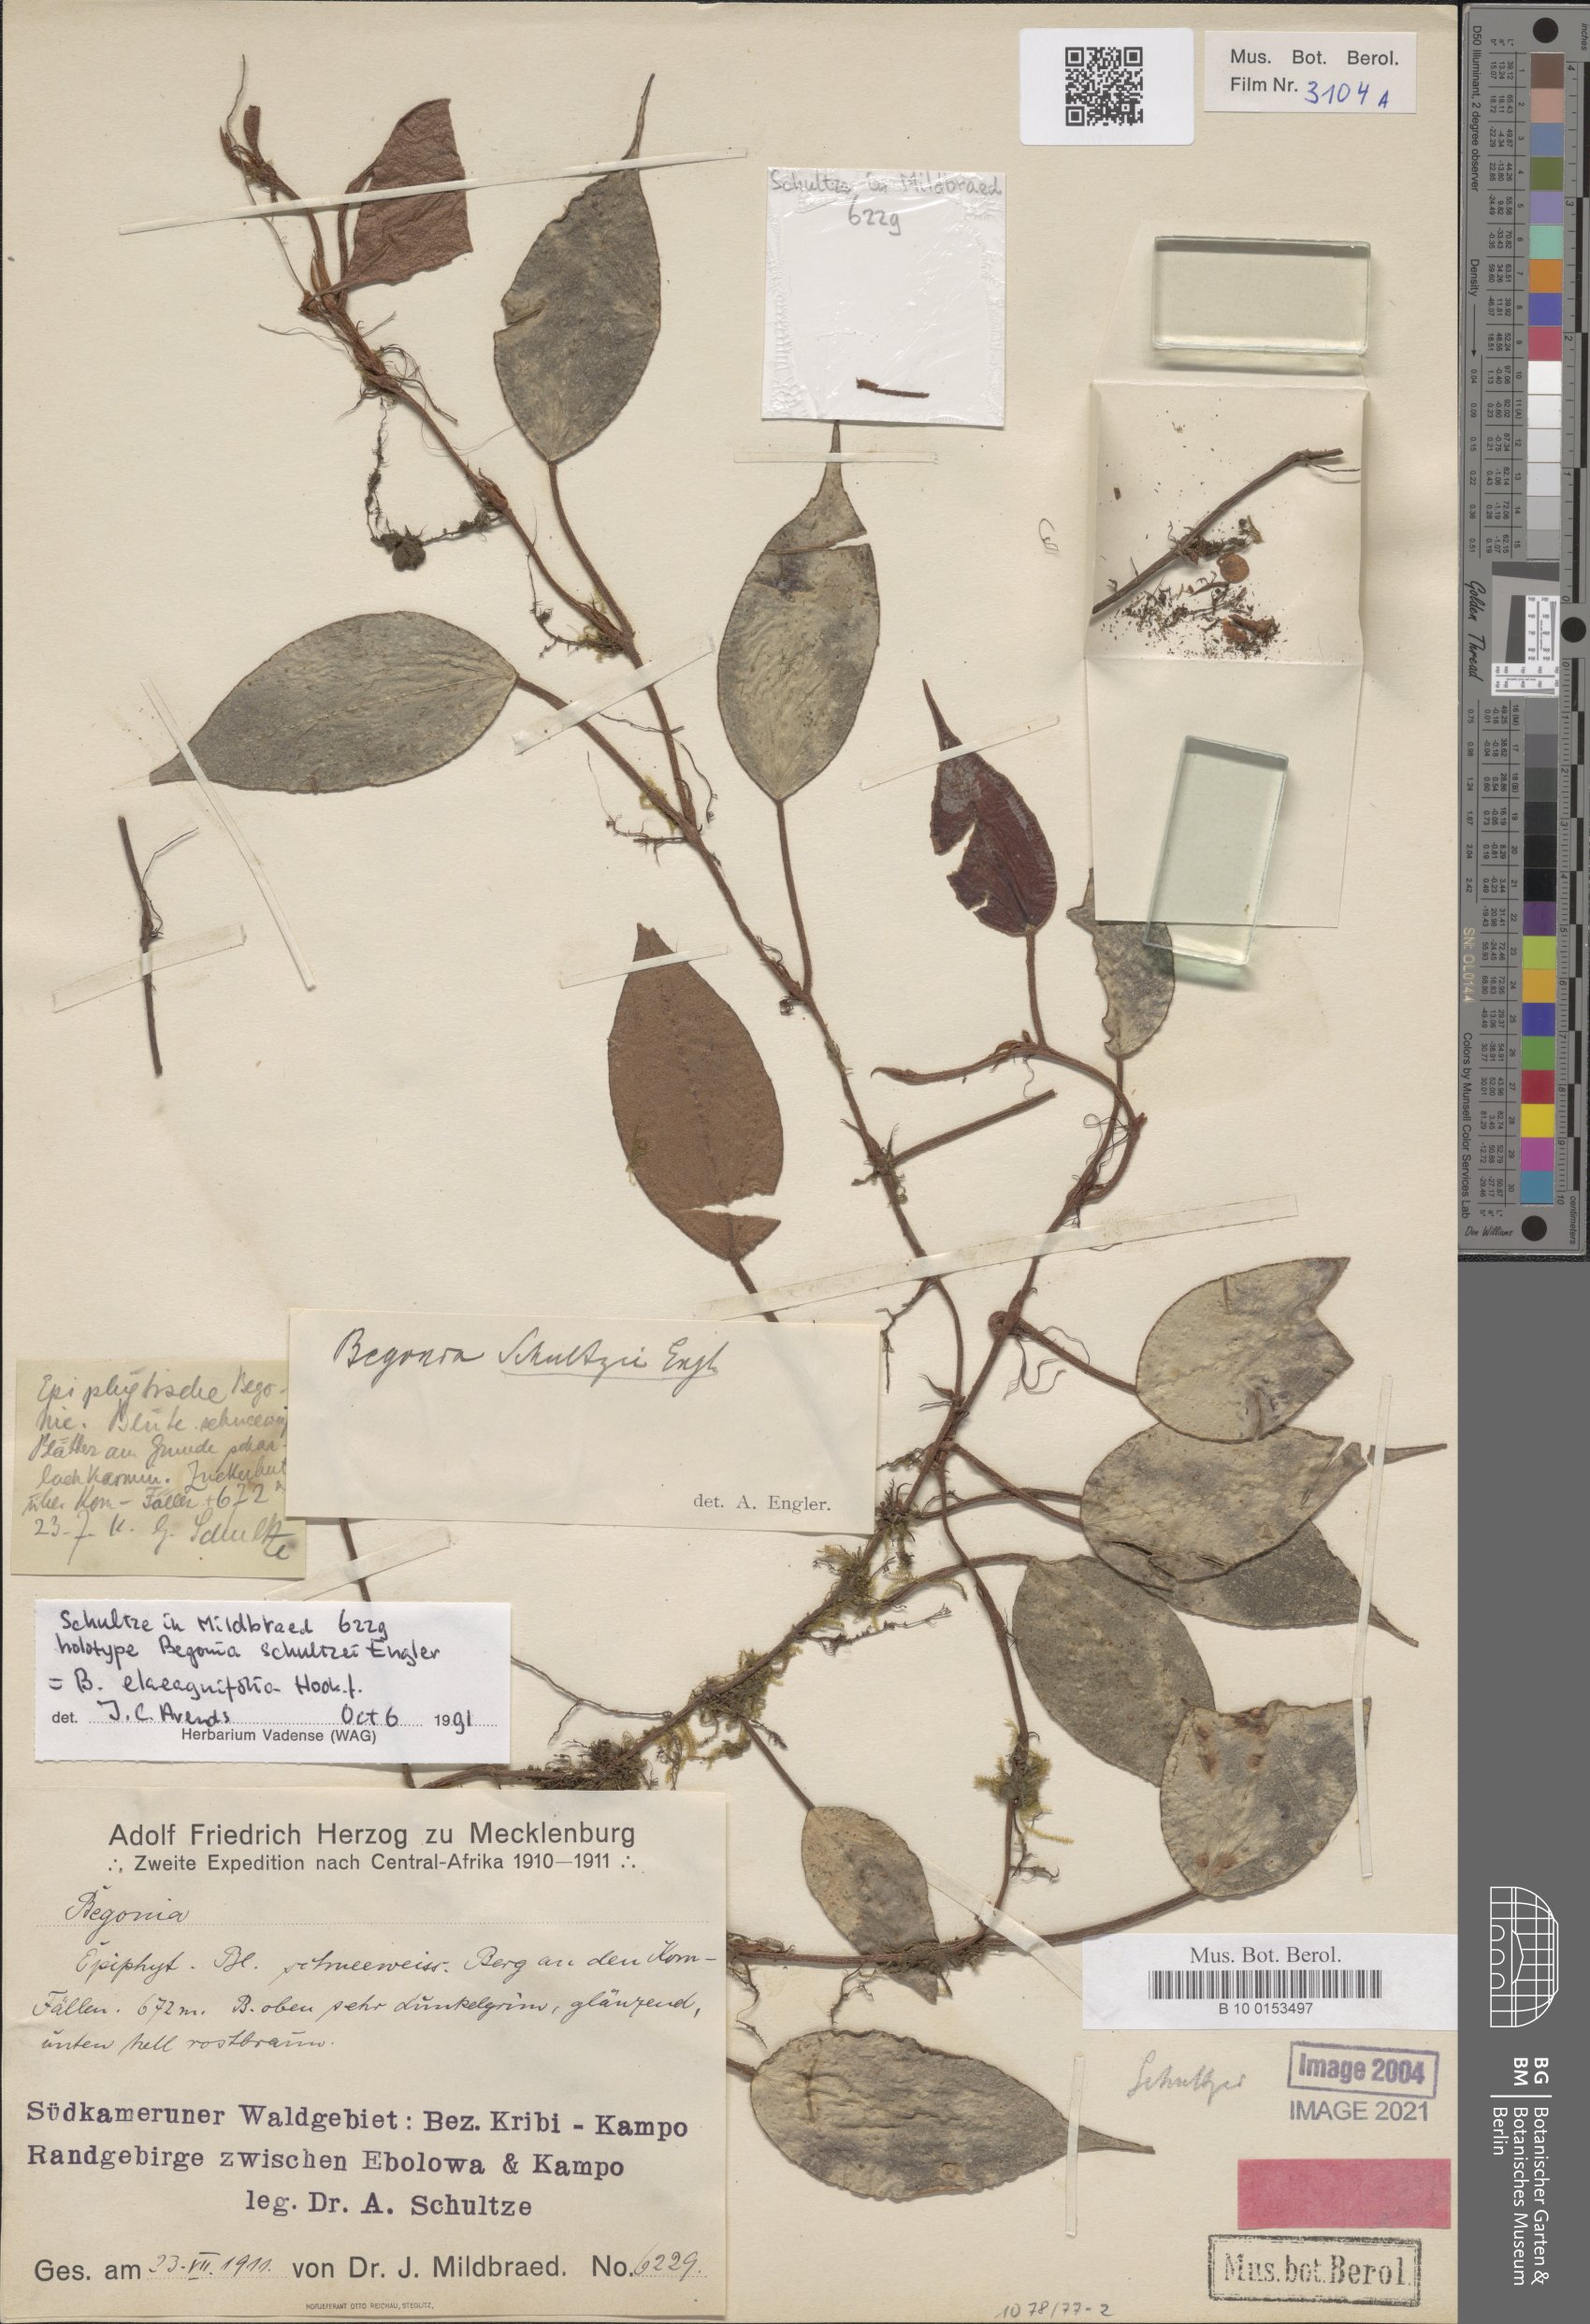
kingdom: Plantae
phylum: Tracheophyta
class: Magnoliopsida
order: Cucurbitales
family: Begoniaceae
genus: Begonia
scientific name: Begonia elaeagnifolia
